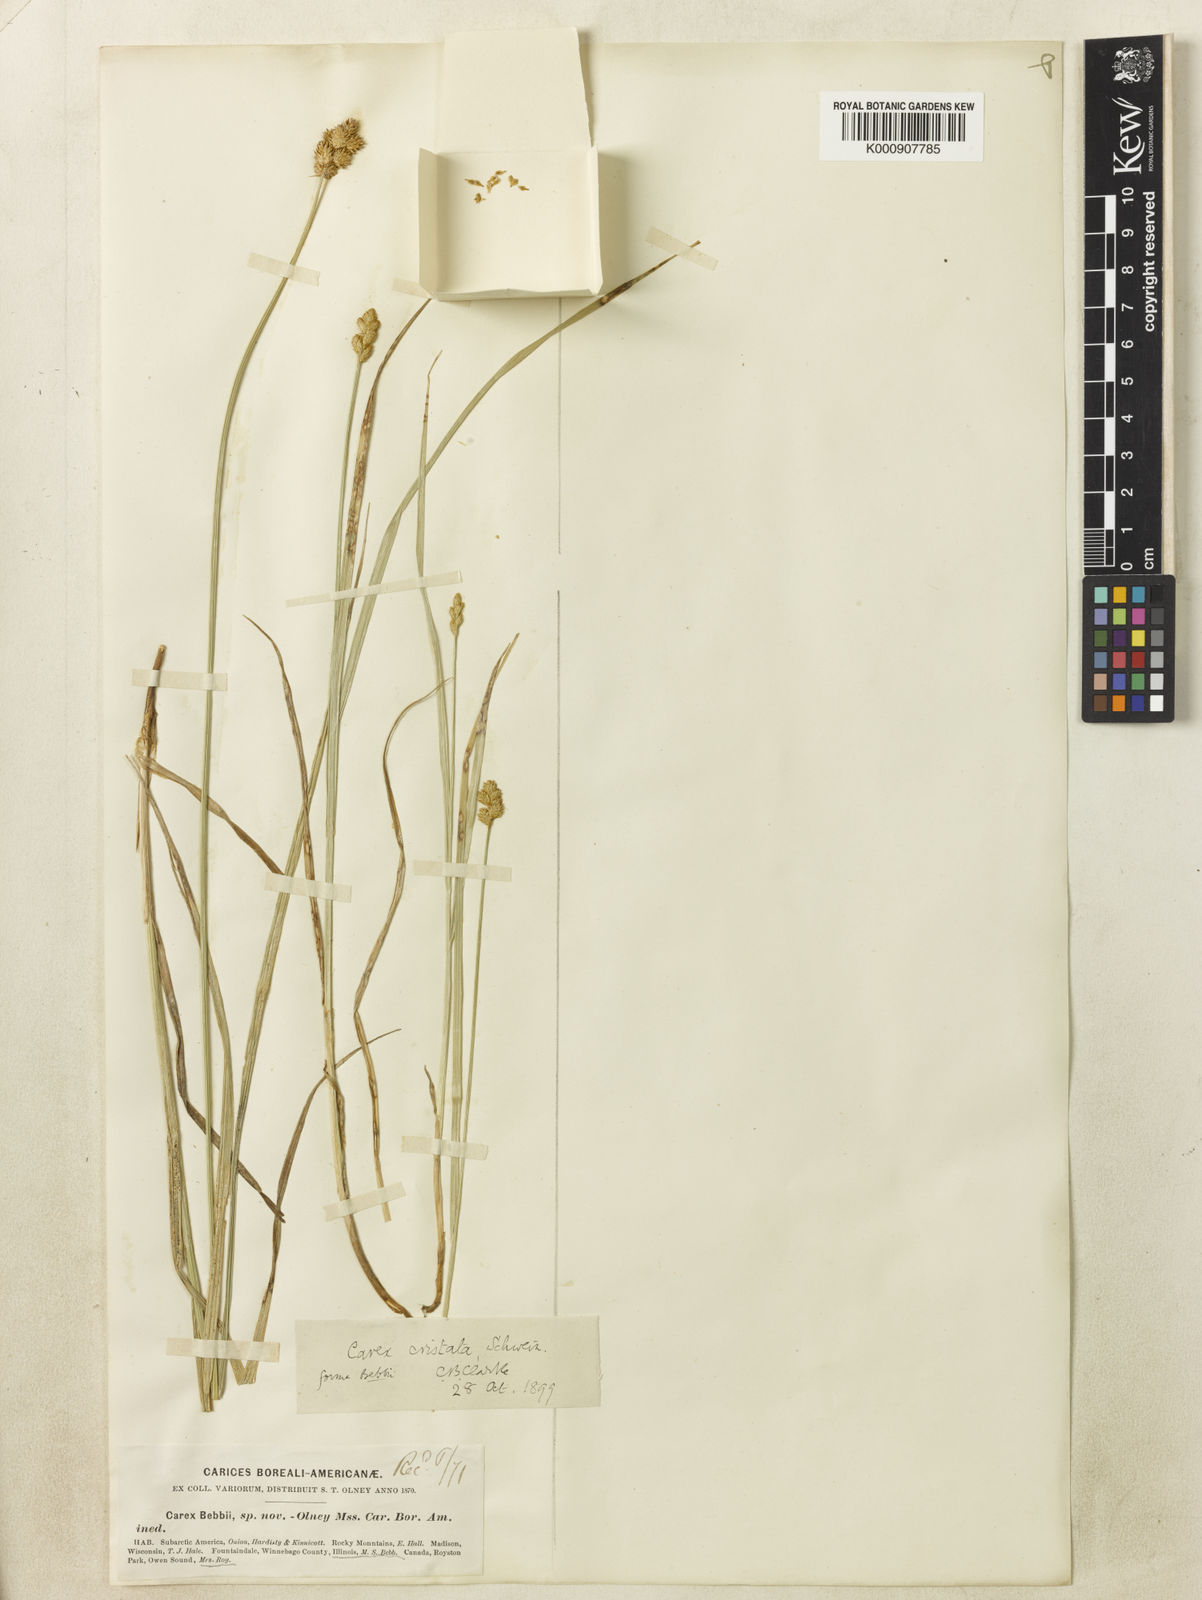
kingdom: Plantae
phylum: Tracheophyta
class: Liliopsida
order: Poales
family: Cyperaceae
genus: Carex
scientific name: Carex
